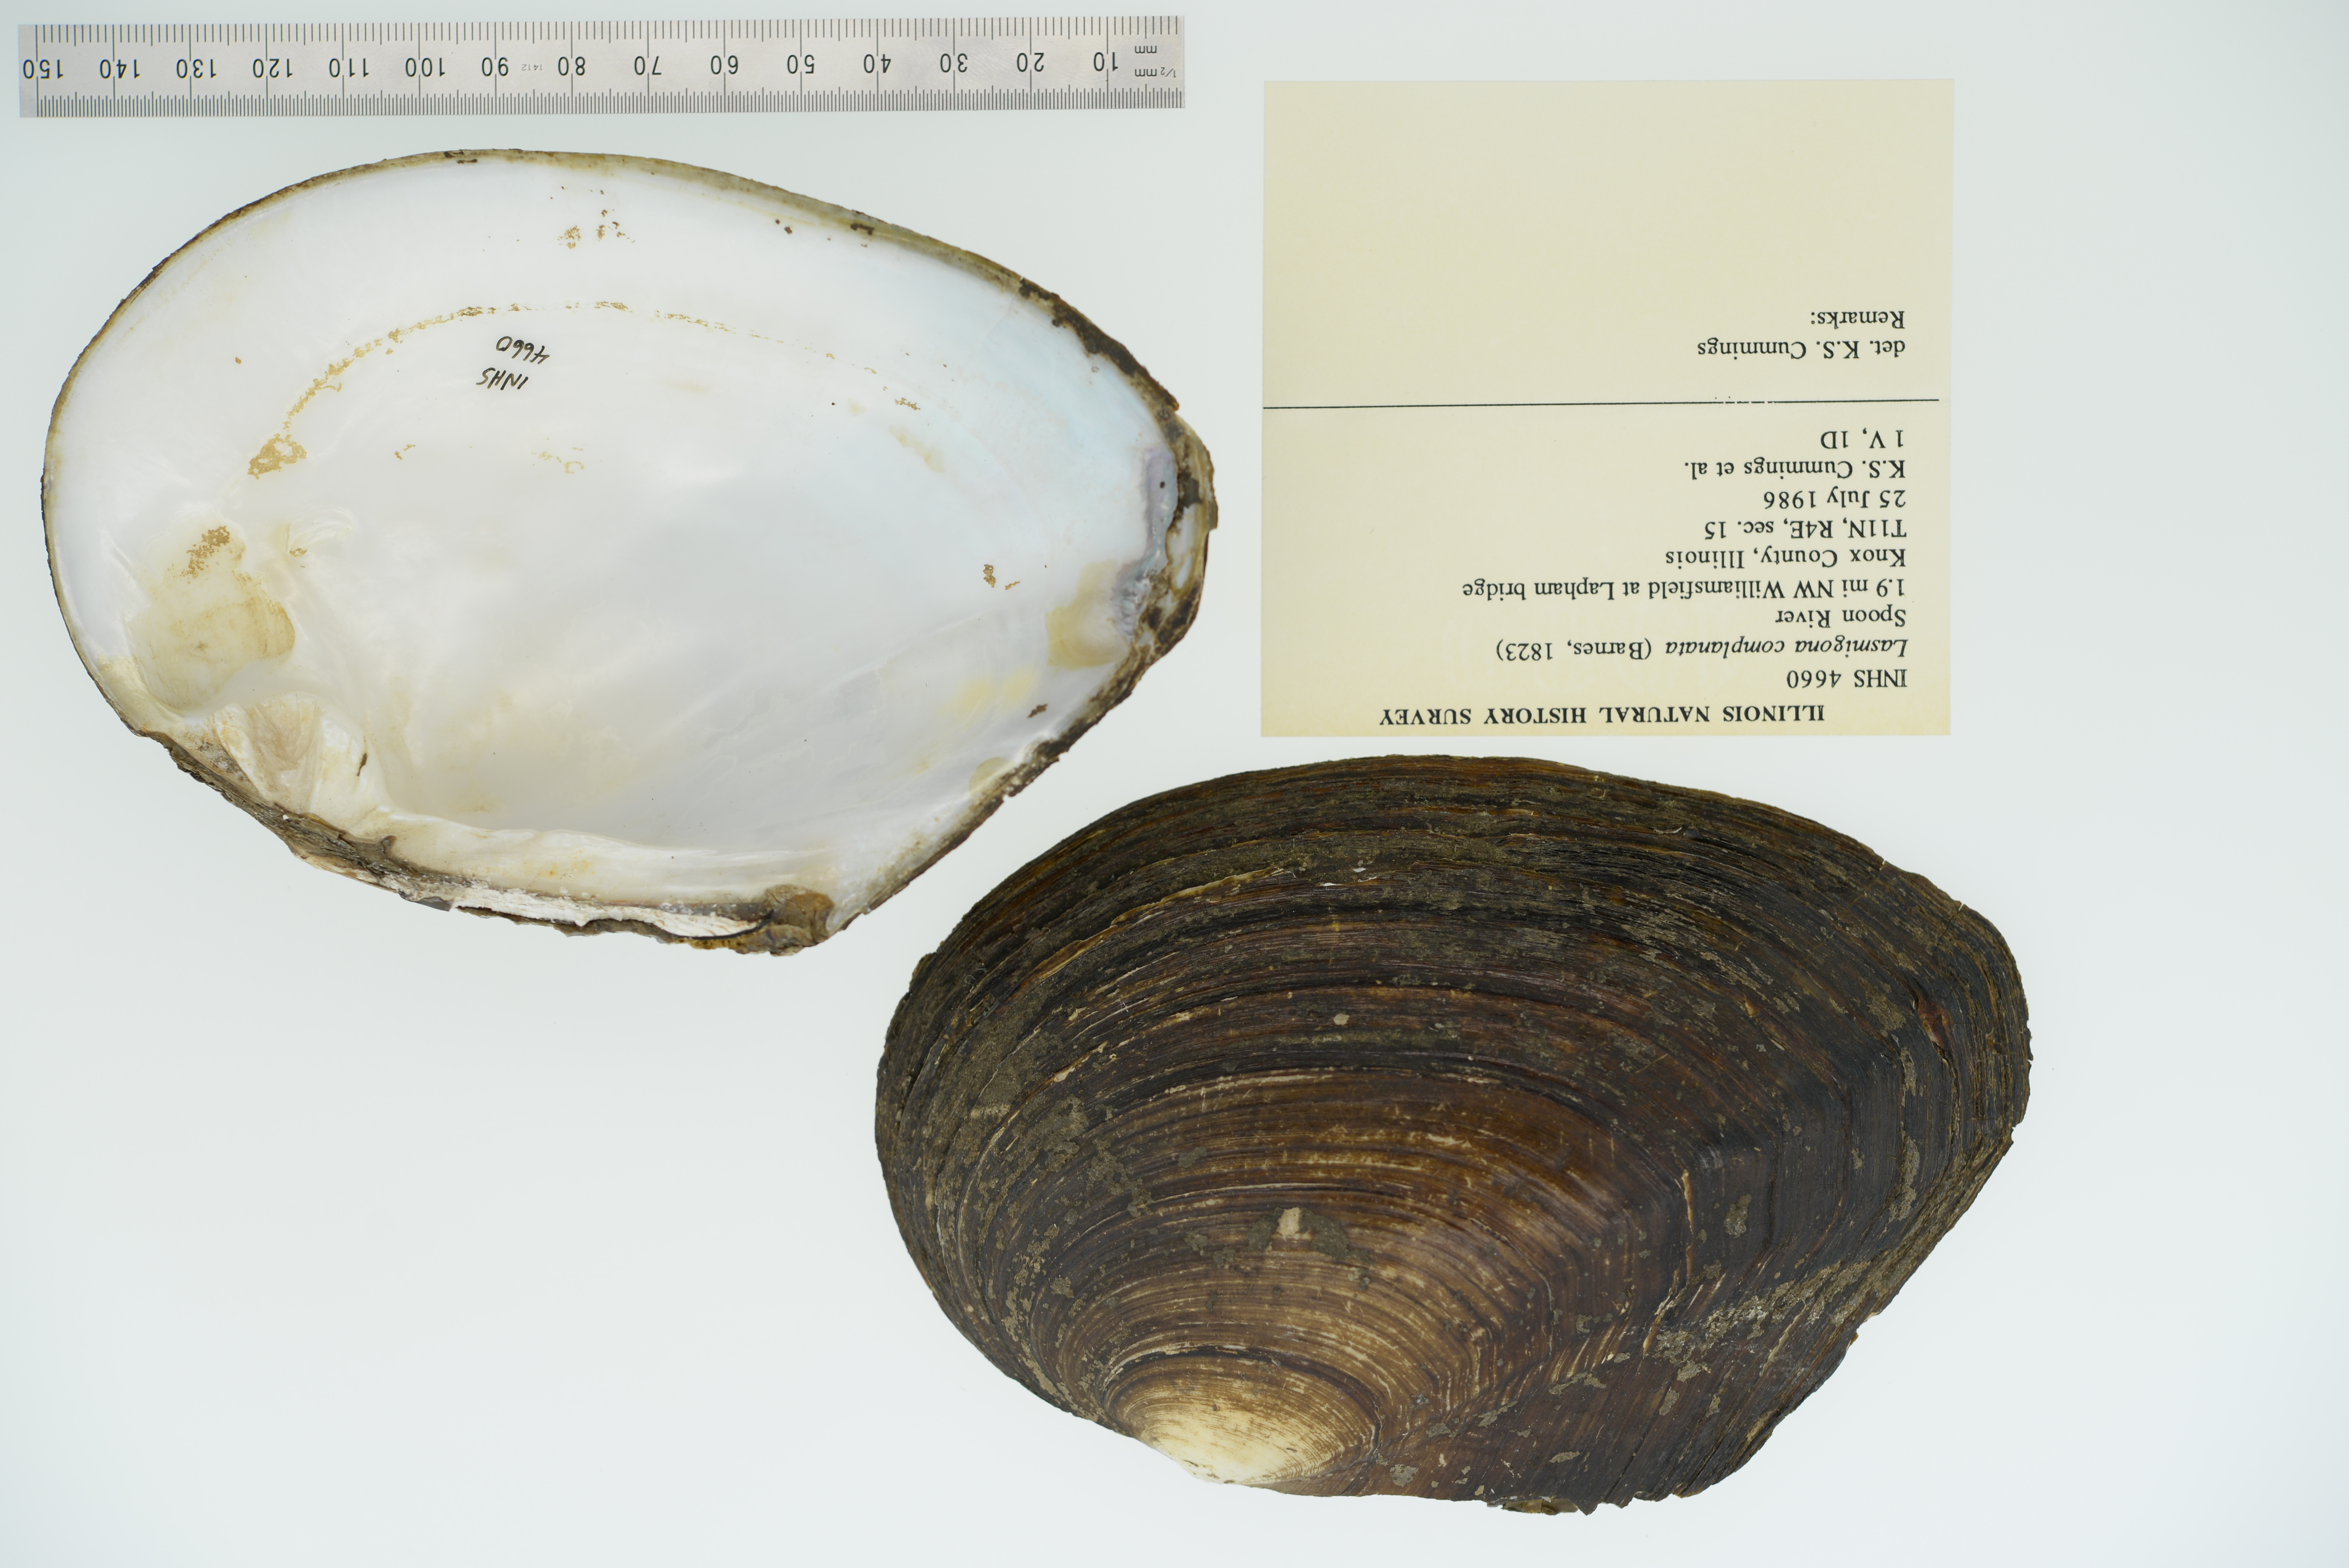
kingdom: Animalia
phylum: Mollusca
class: Bivalvia
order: Unionida
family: Unionidae
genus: Lasmigona
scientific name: Lasmigona complanata
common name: White heelsplitter
